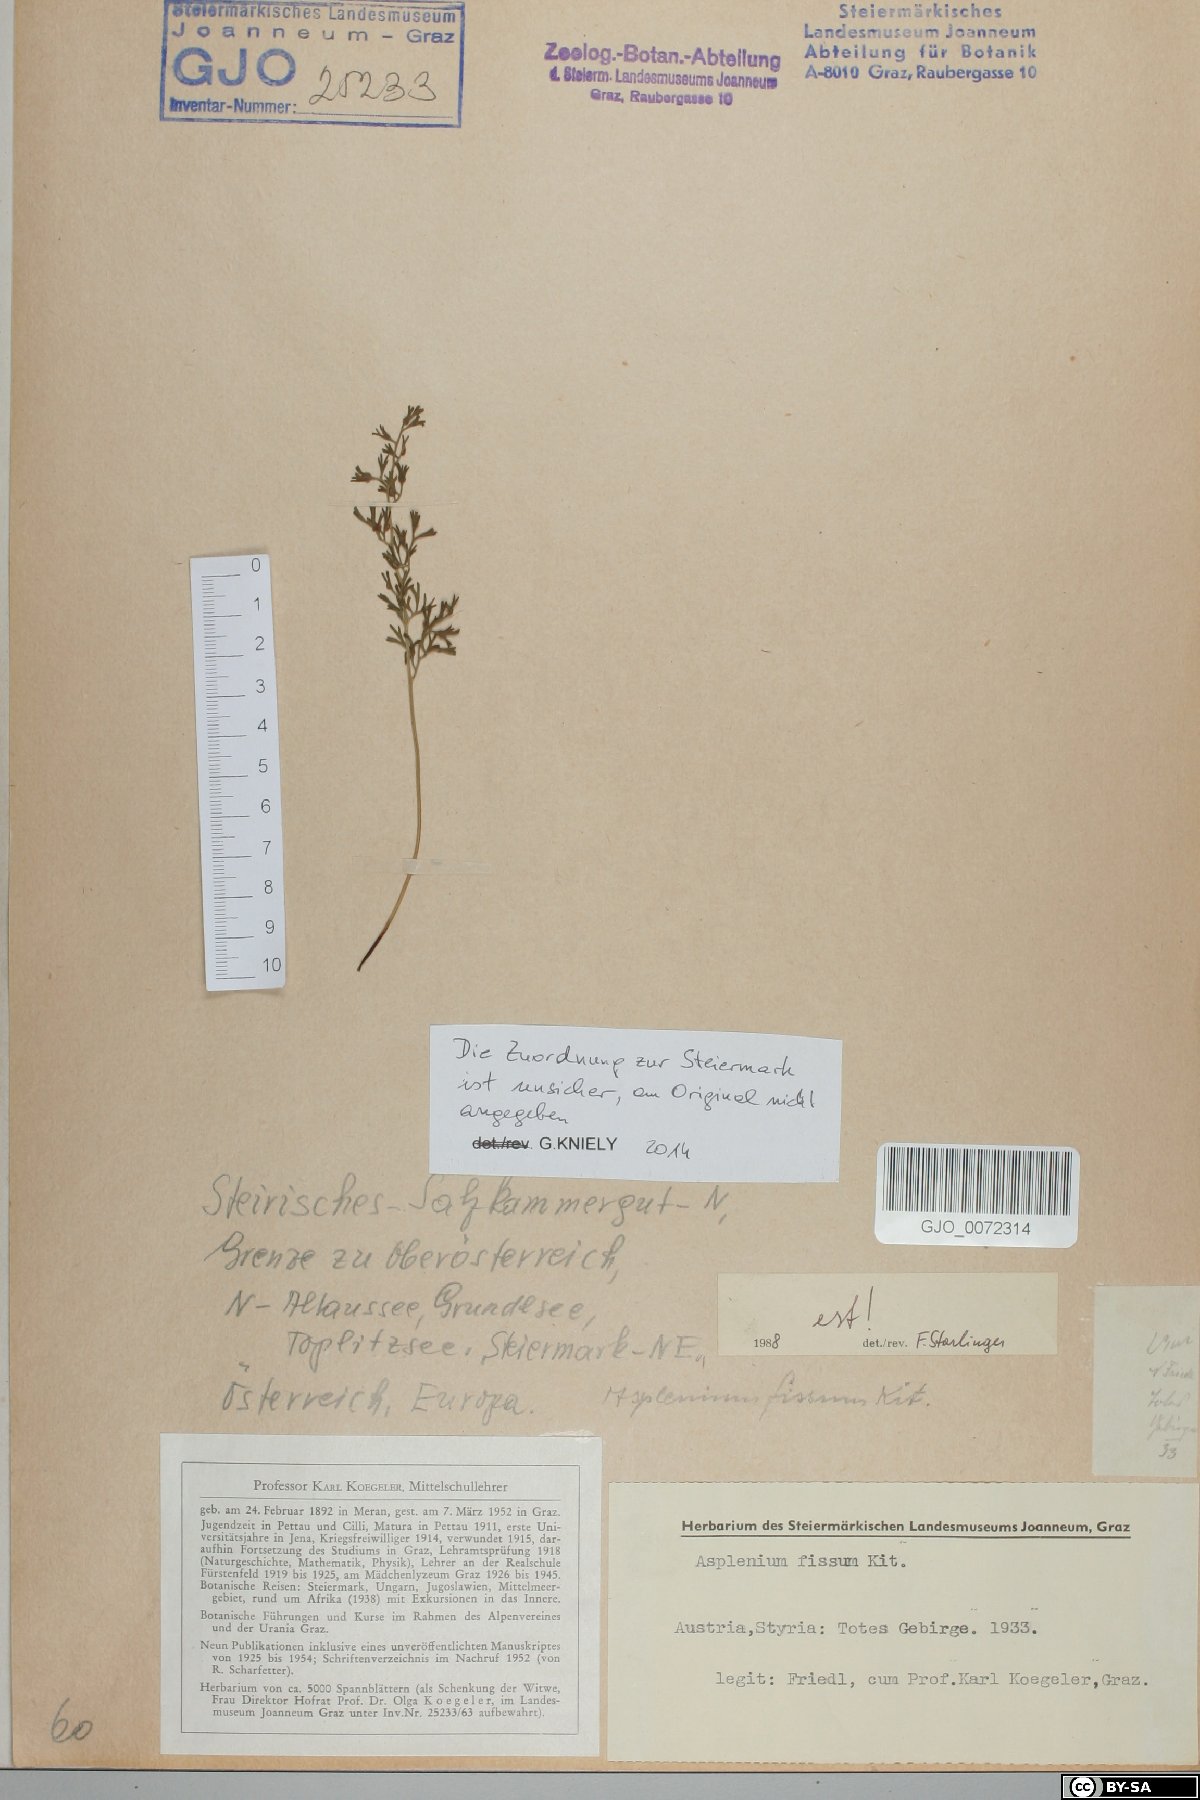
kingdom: Plantae
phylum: Tracheophyta
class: Polypodiopsida
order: Polypodiales
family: Aspleniaceae
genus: Asplenium
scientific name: Asplenium fissum
